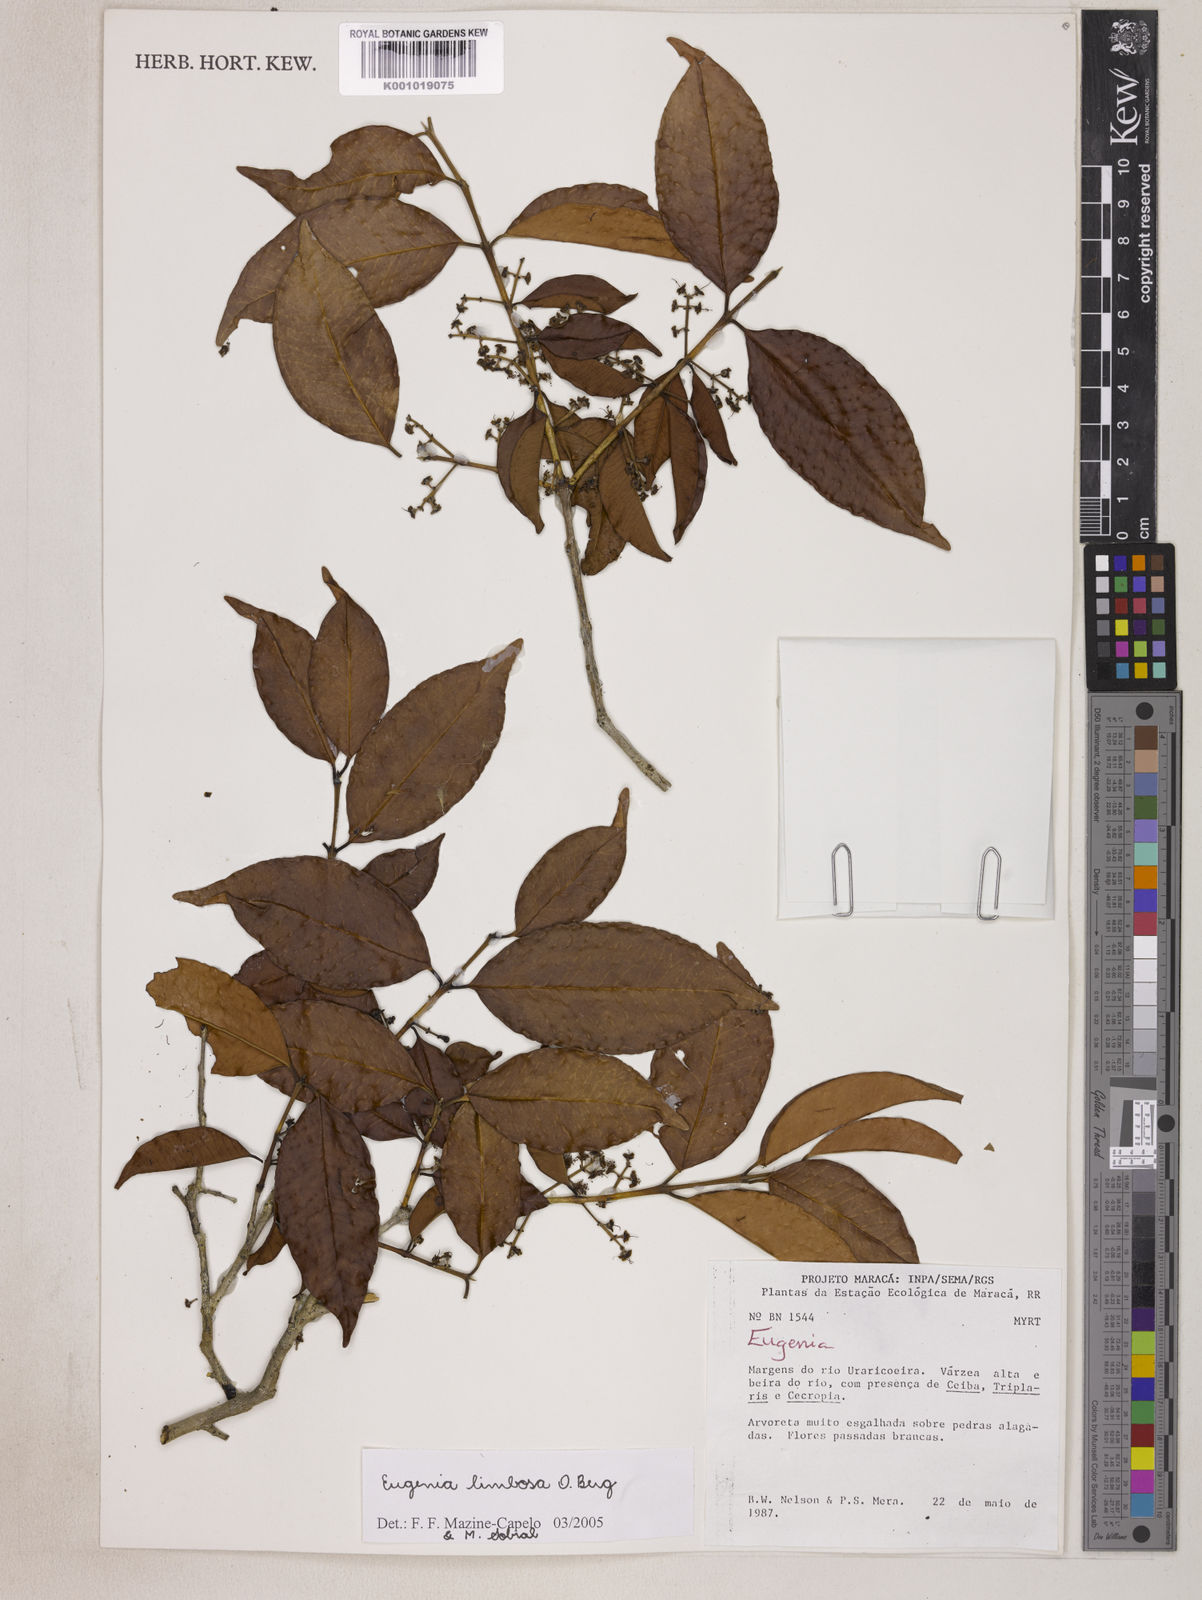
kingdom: Plantae
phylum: Tracheophyta
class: Magnoliopsida
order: Myrtales
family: Myrtaceae
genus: Eugenia
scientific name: Eugenia limbosa
